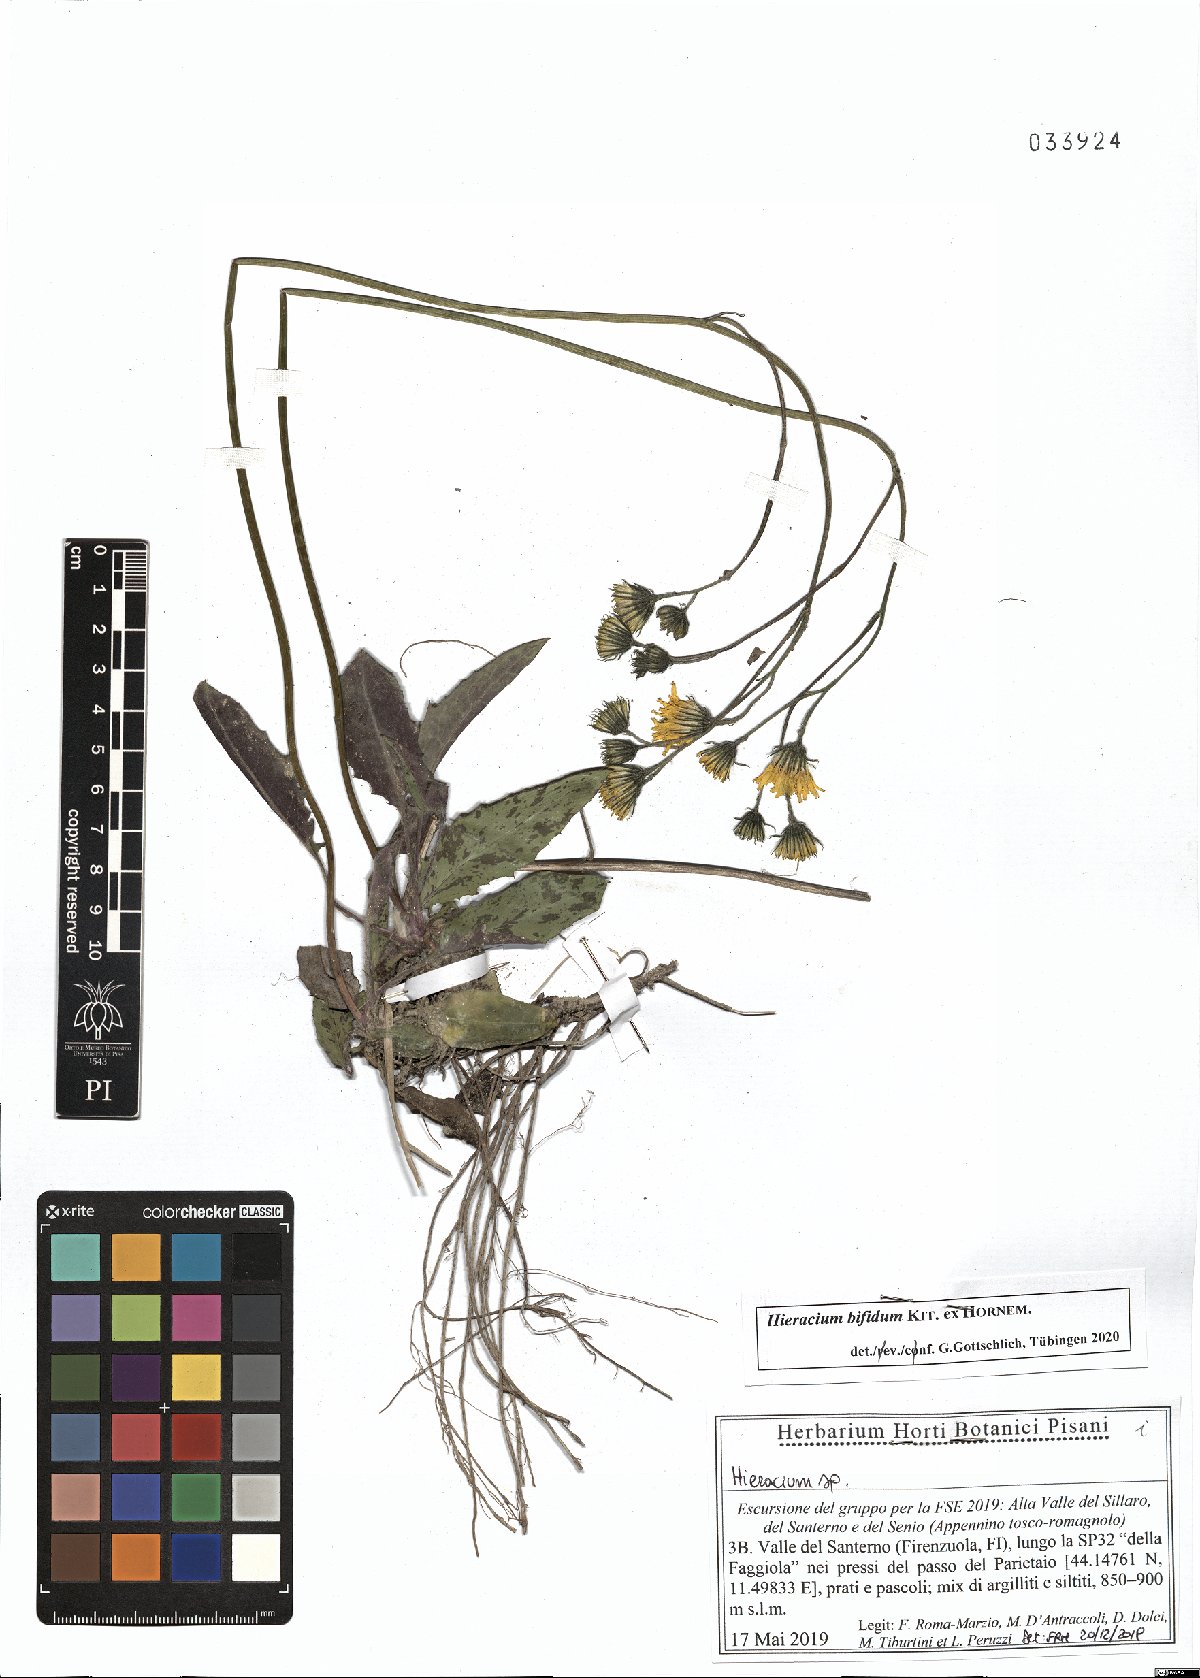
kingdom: Plantae
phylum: Tracheophyta
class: Magnoliopsida
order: Asterales
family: Asteraceae
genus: Hieracium
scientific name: Hieracium bifidum
